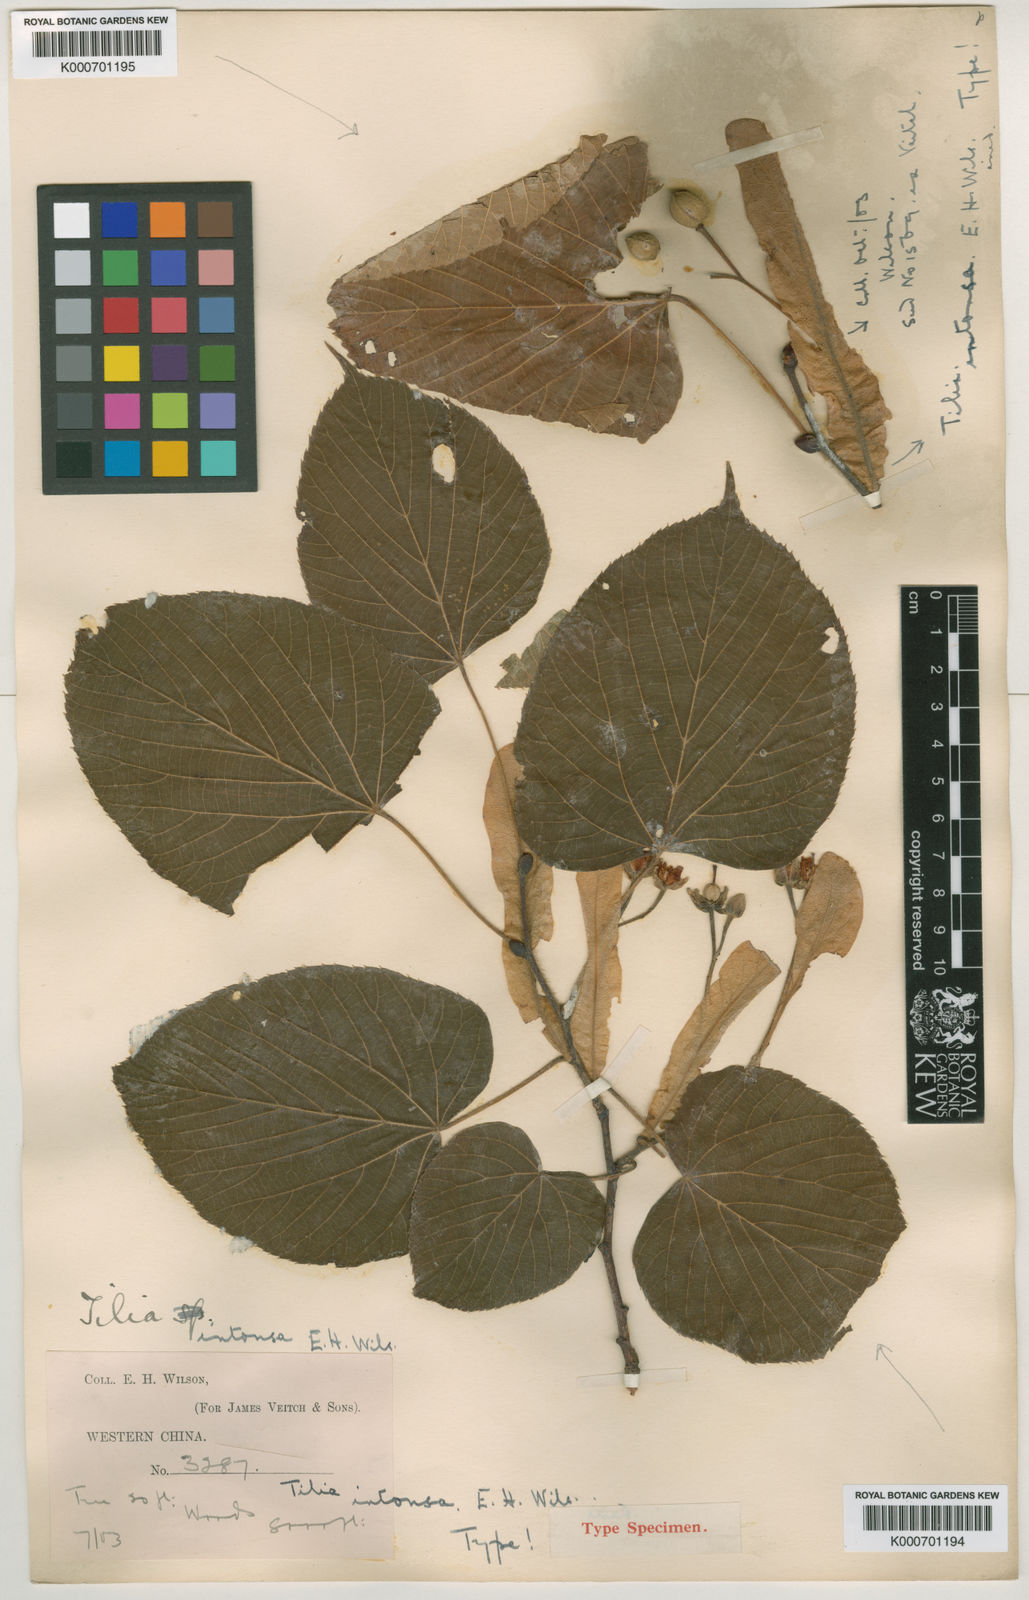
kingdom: Plantae
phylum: Tracheophyta
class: Magnoliopsida
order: Malvales
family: Malvaceae
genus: Tilia
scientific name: Tilia chinensis
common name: Chinese linden
